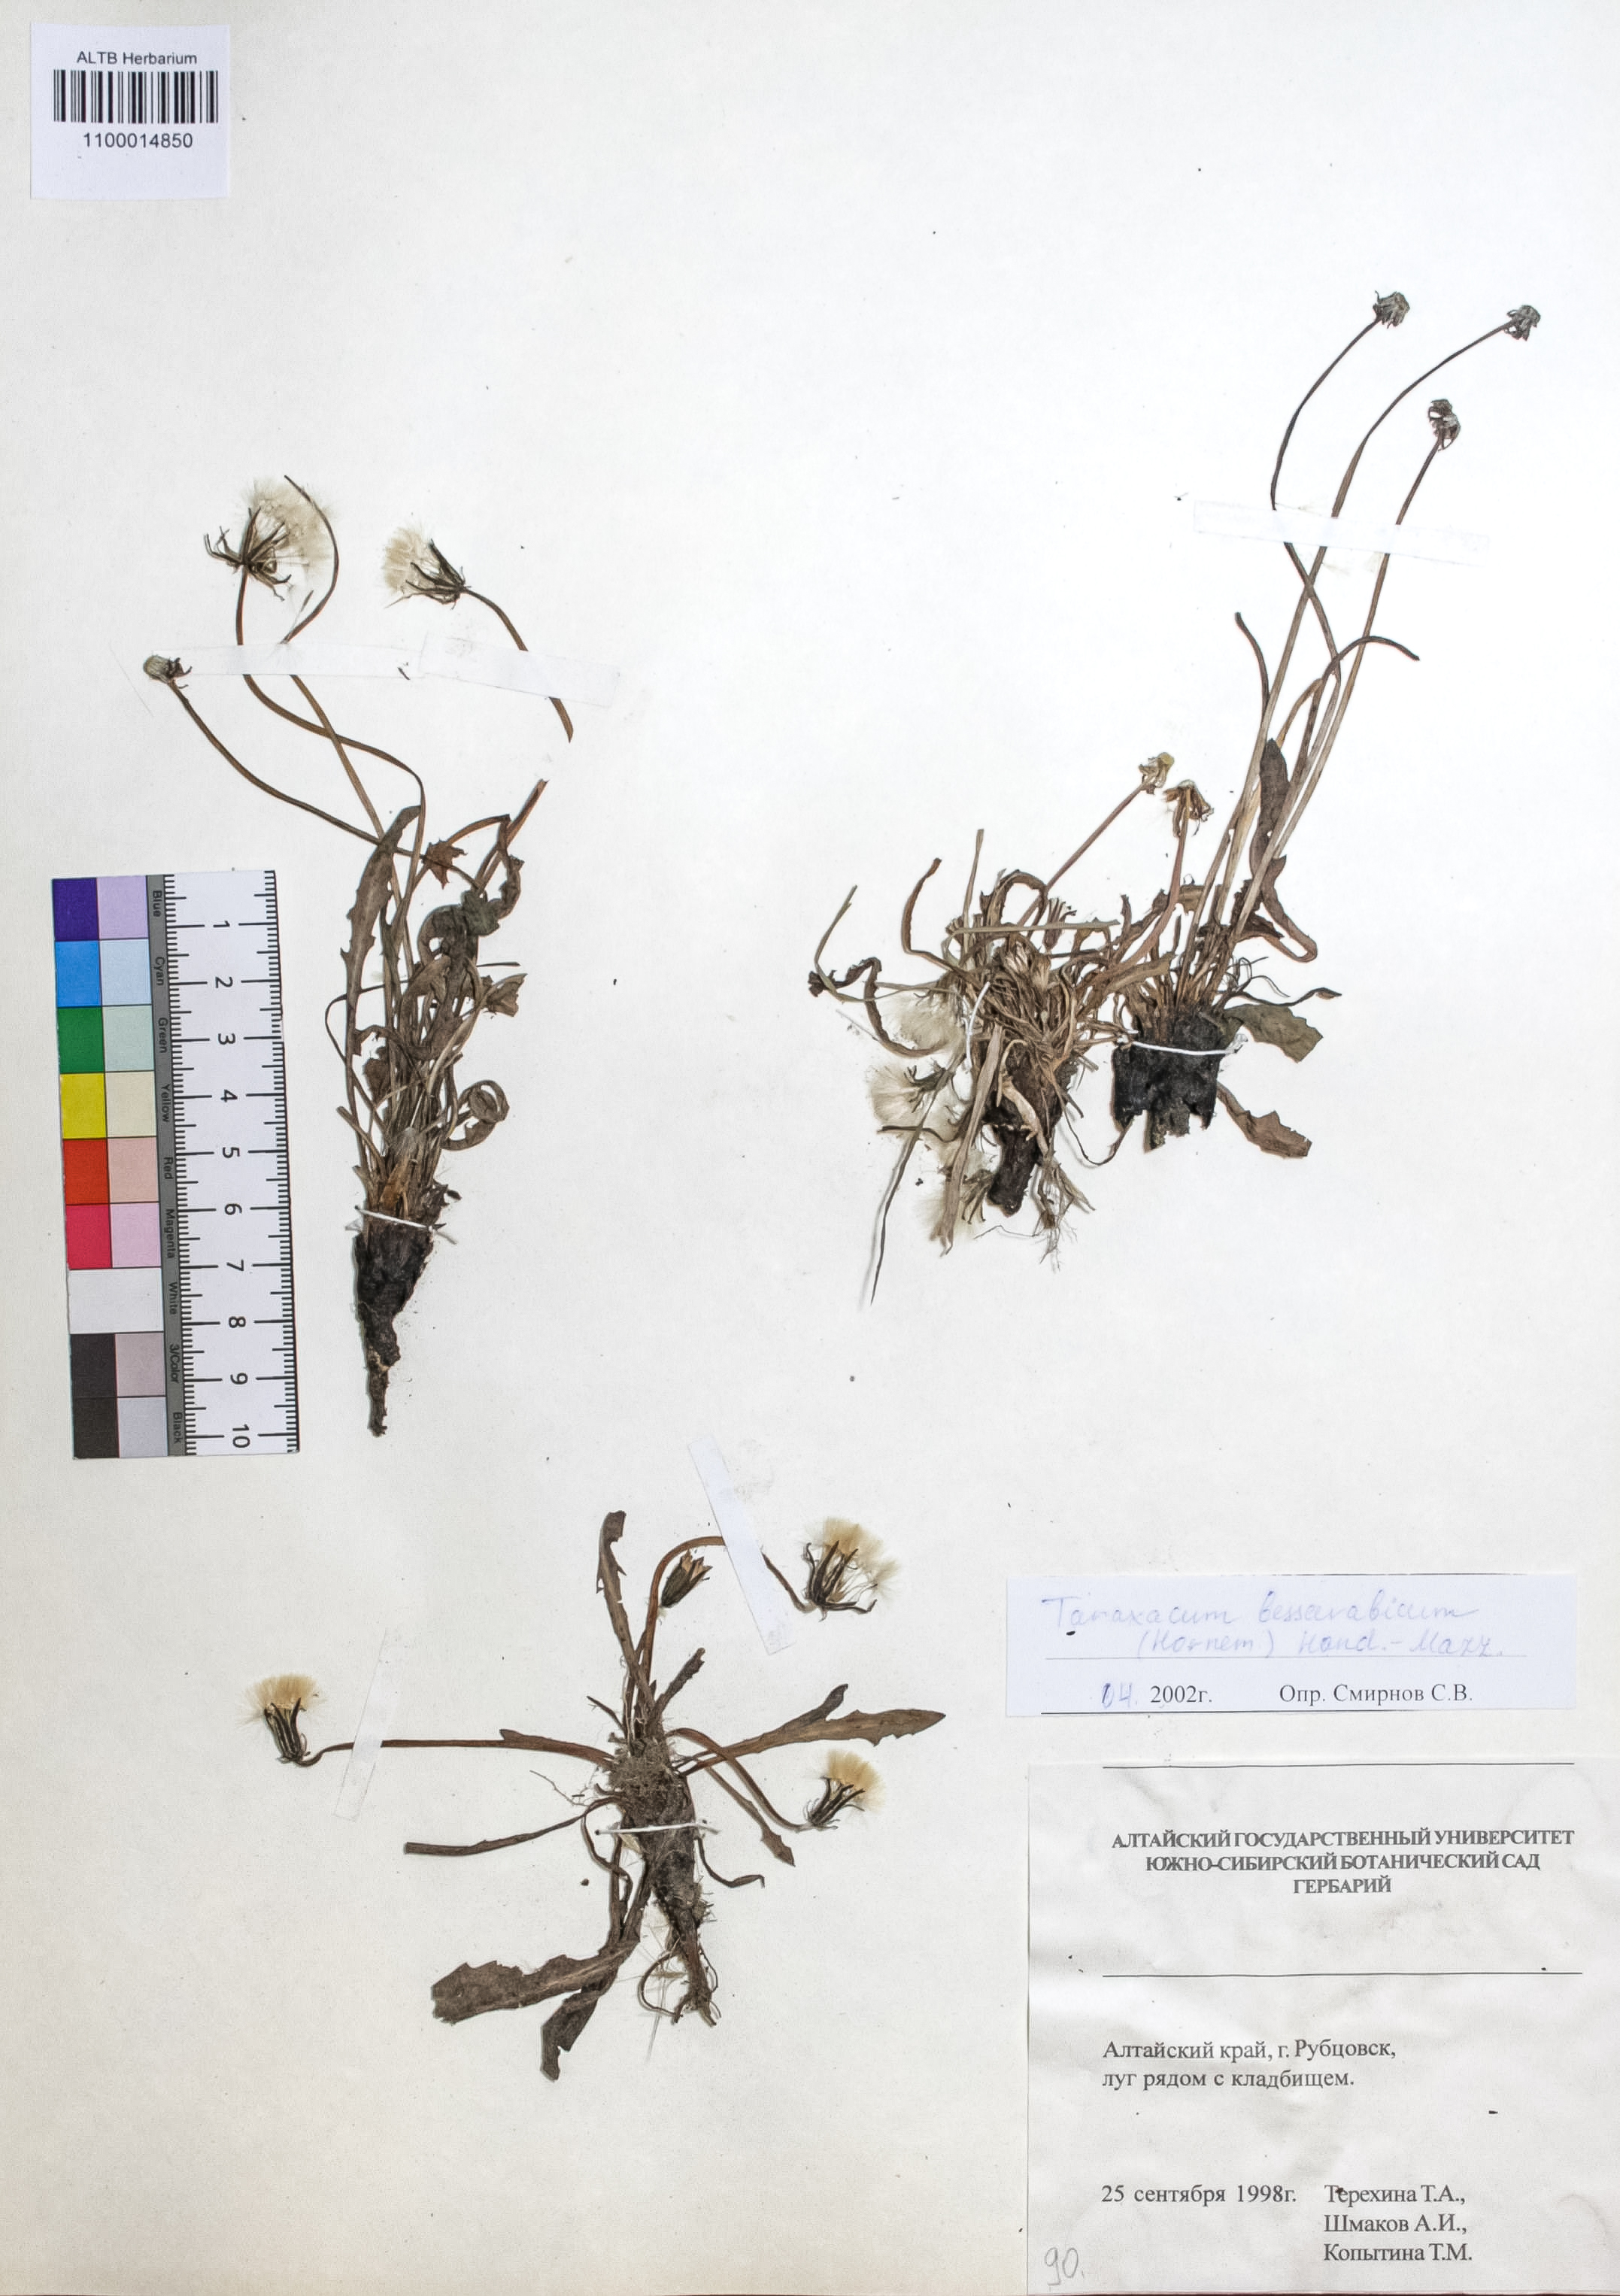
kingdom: Plantae
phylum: Tracheophyta
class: Magnoliopsida
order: Asterales
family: Asteraceae
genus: Taraxacum
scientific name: Taraxacum bessarabicum
